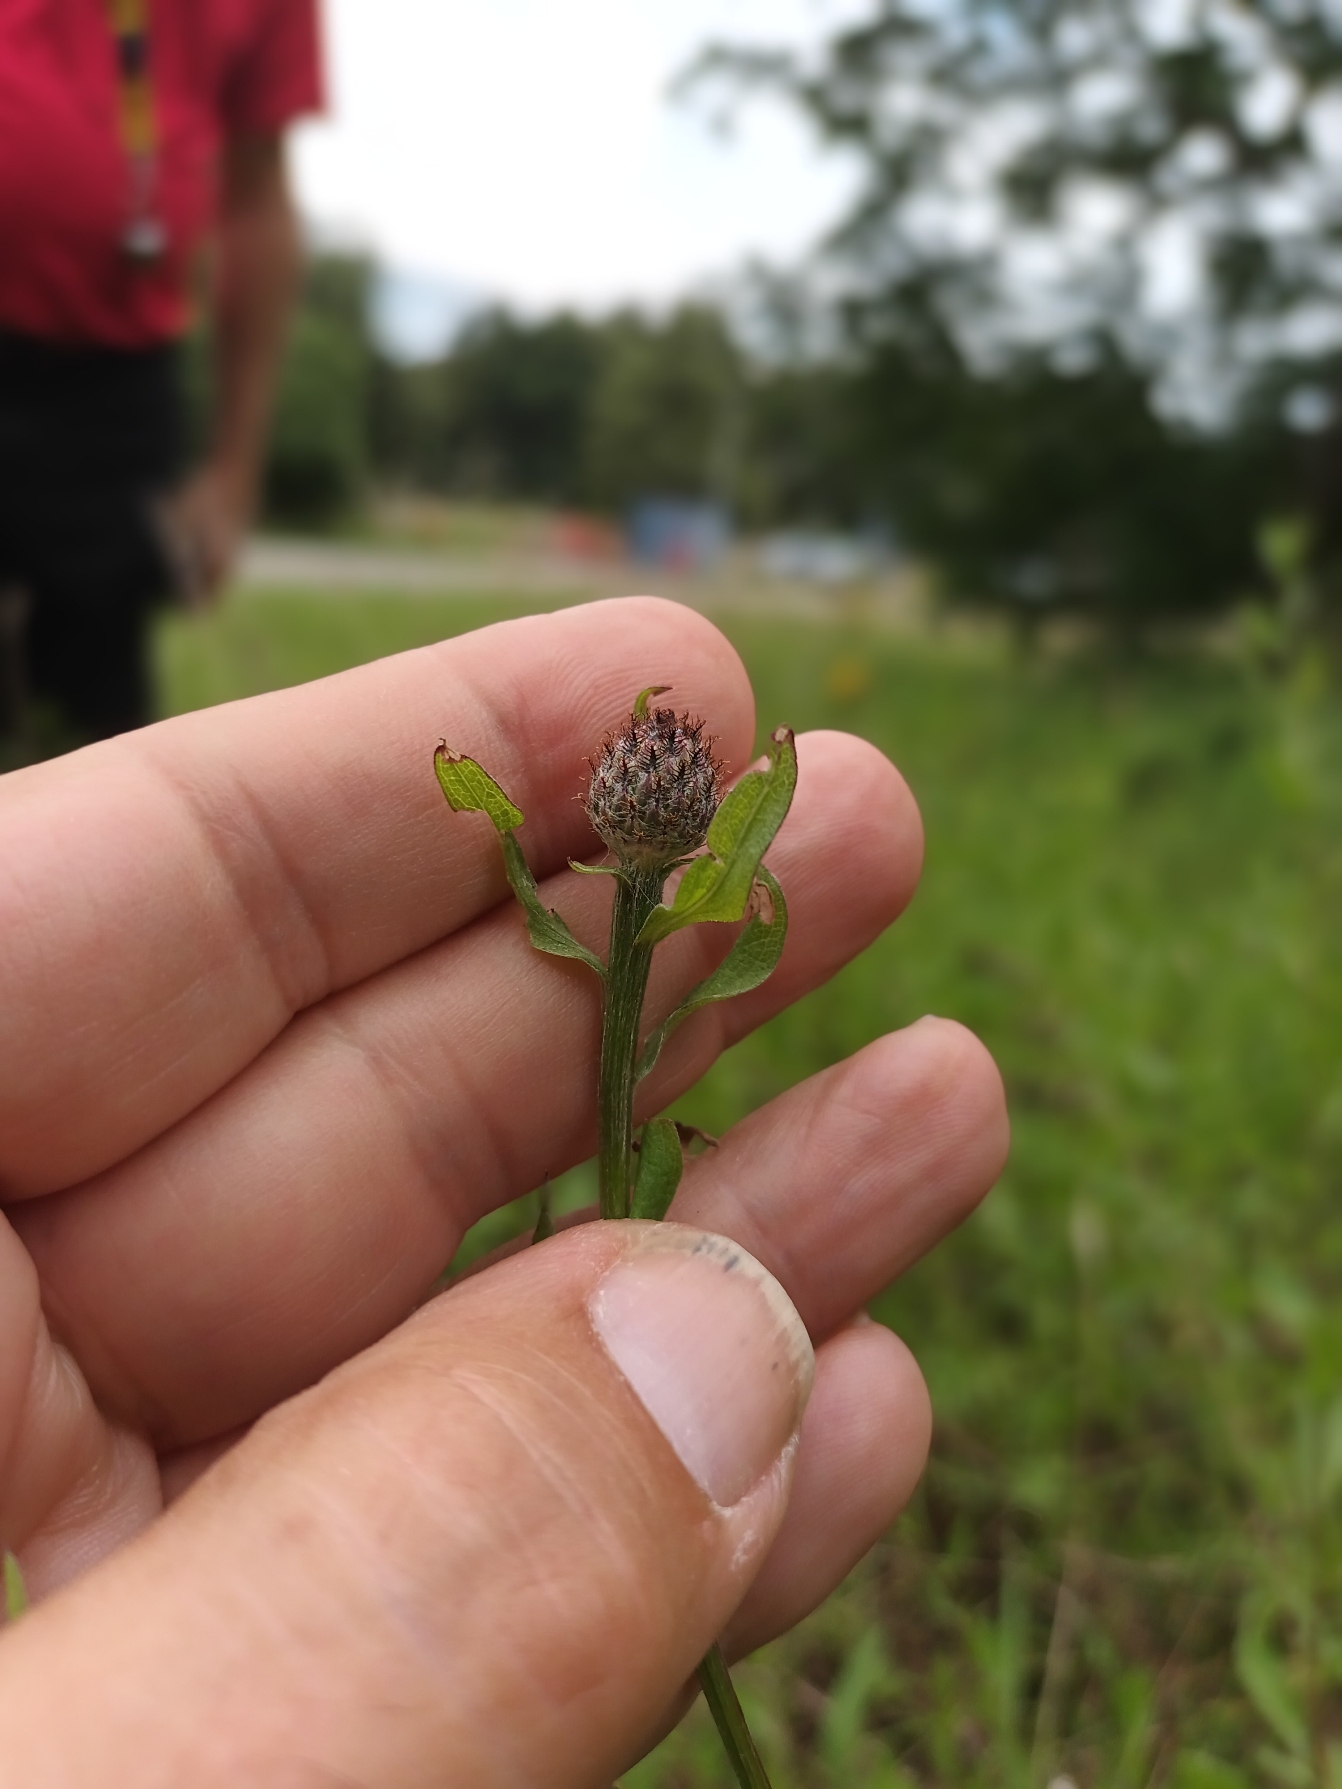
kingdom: Plantae
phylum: Tracheophyta
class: Magnoliopsida
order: Asterales
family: Asteraceae
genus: Centaurea
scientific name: Centaurea debeauxii
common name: Lundknopurt
